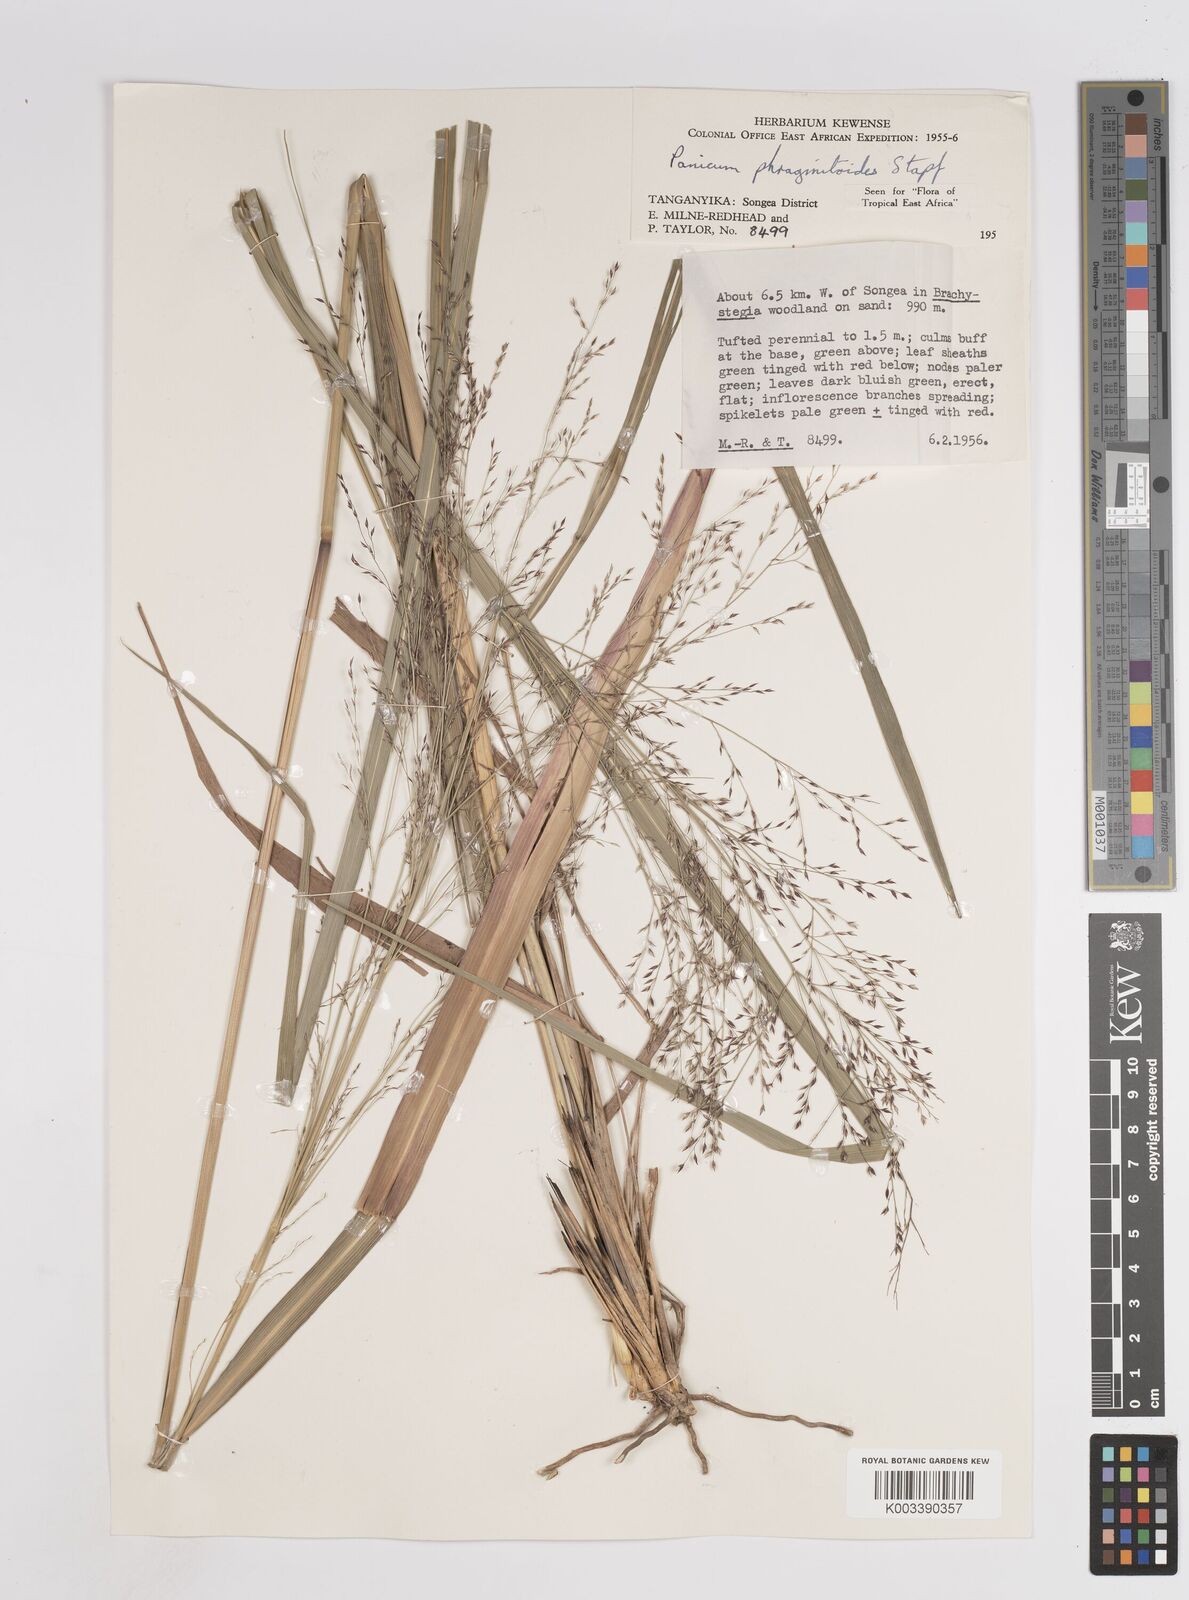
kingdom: Plantae
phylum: Tracheophyta
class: Liliopsida
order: Poales
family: Poaceae
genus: Panicum
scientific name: Panicum phragmitoides
